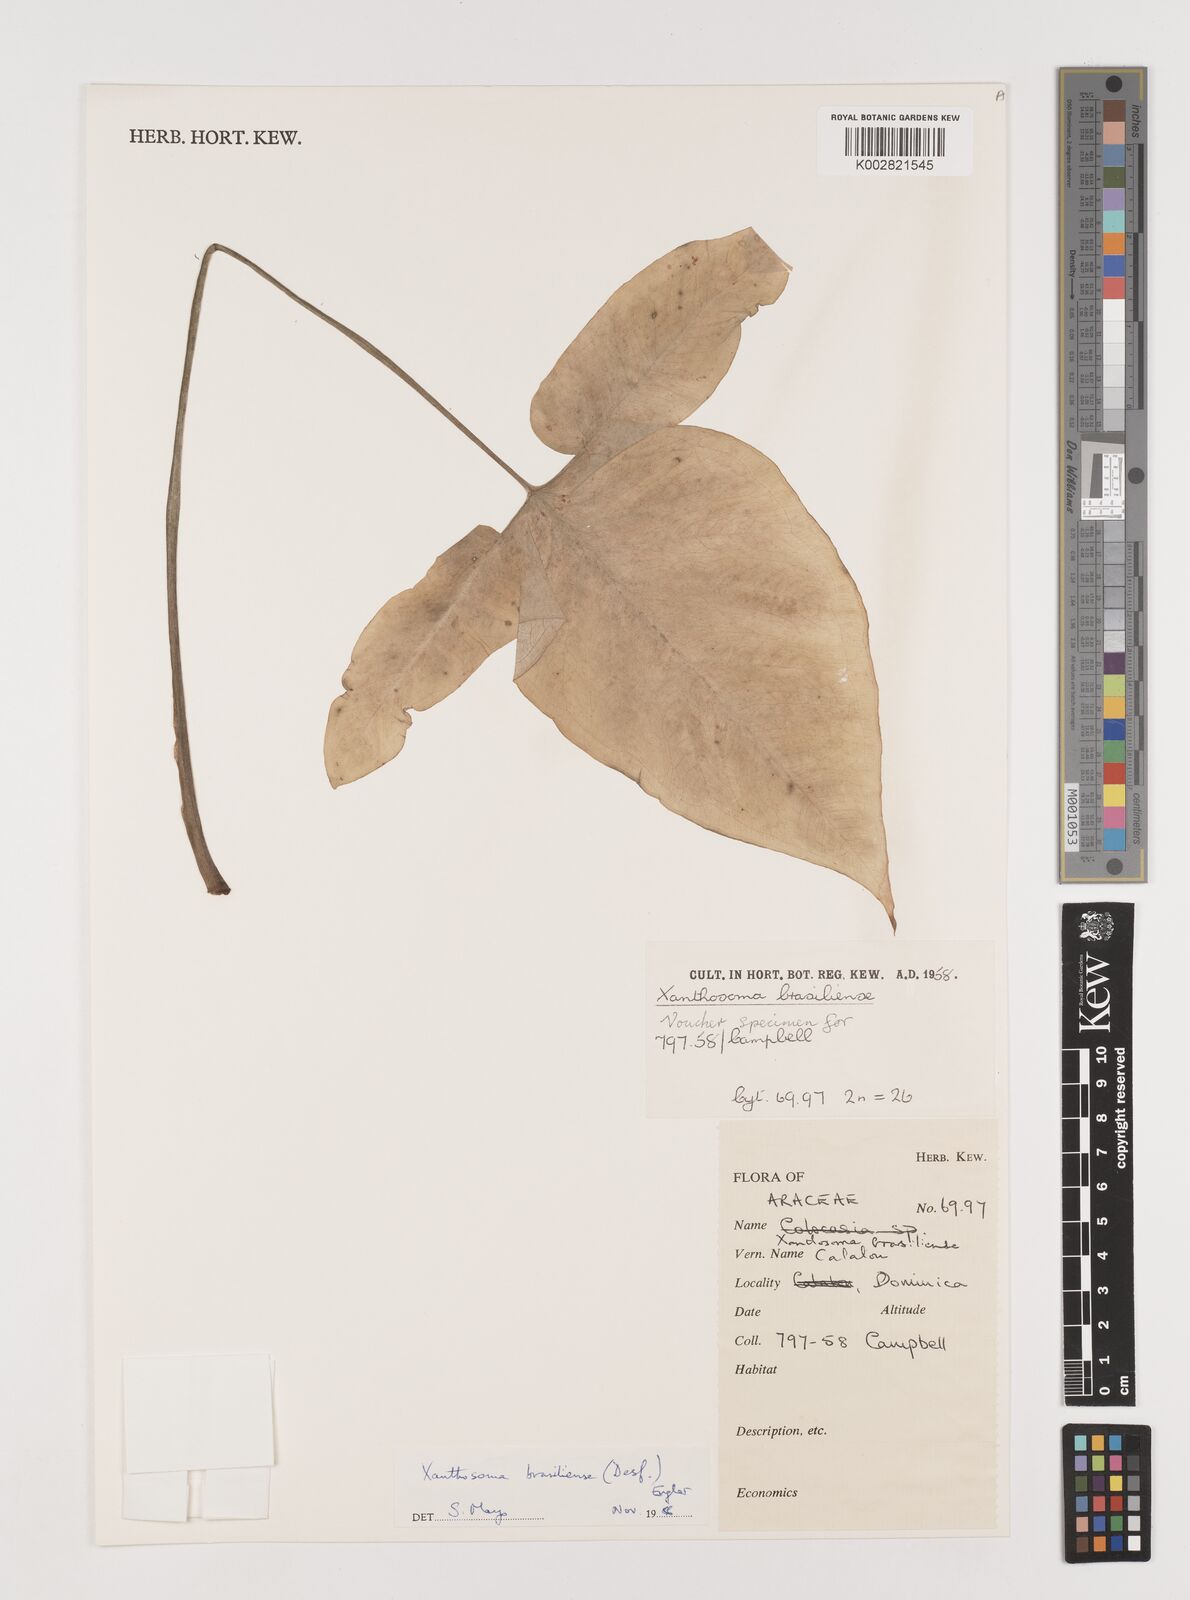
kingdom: Plantae
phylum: Tracheophyta
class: Liliopsida
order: Alismatales
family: Araceae
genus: Xanthosoma
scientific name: Xanthosoma brasiliense
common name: Tahitian-spinach
